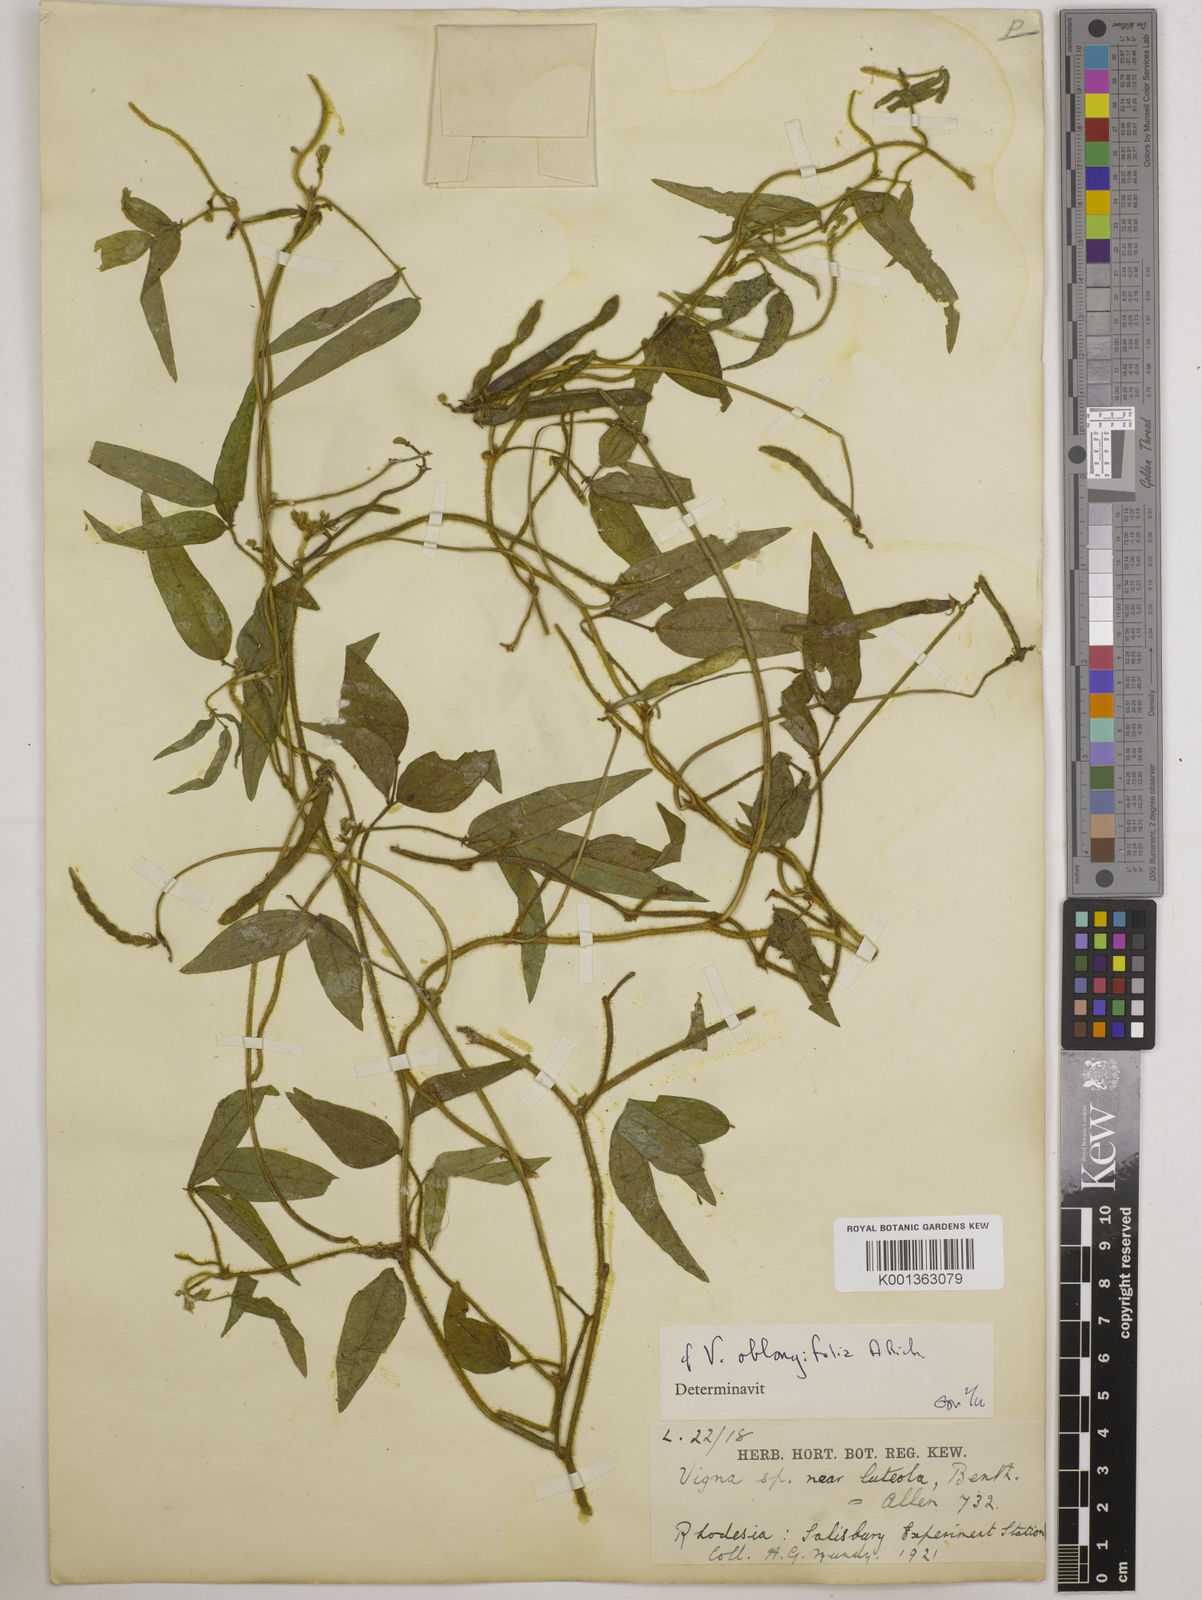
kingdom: Plantae
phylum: Tracheophyta
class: Magnoliopsida
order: Fabales
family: Fabaceae
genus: Vigna
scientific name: Vigna oblongifolia
